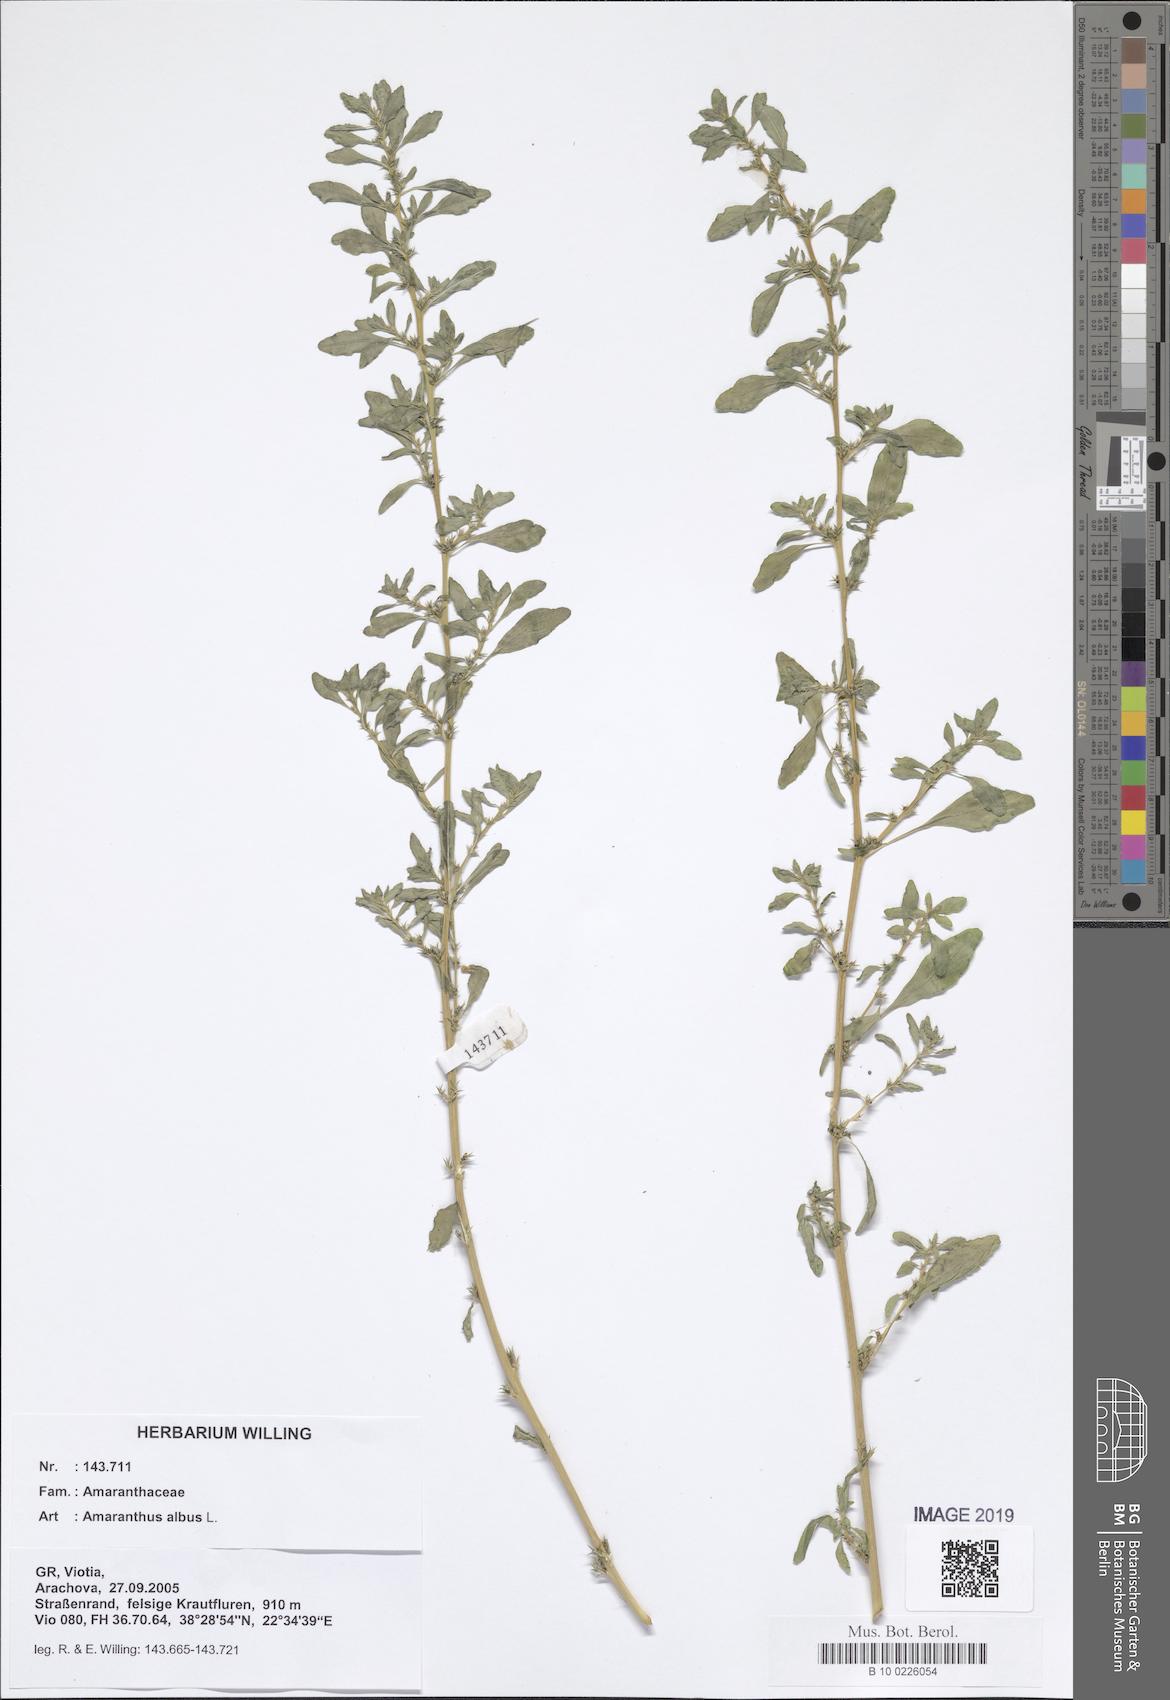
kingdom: Plantae
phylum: Tracheophyta
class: Magnoliopsida
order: Caryophyllales
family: Amaranthaceae
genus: Amaranthus
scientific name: Amaranthus albus
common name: White pigweed
